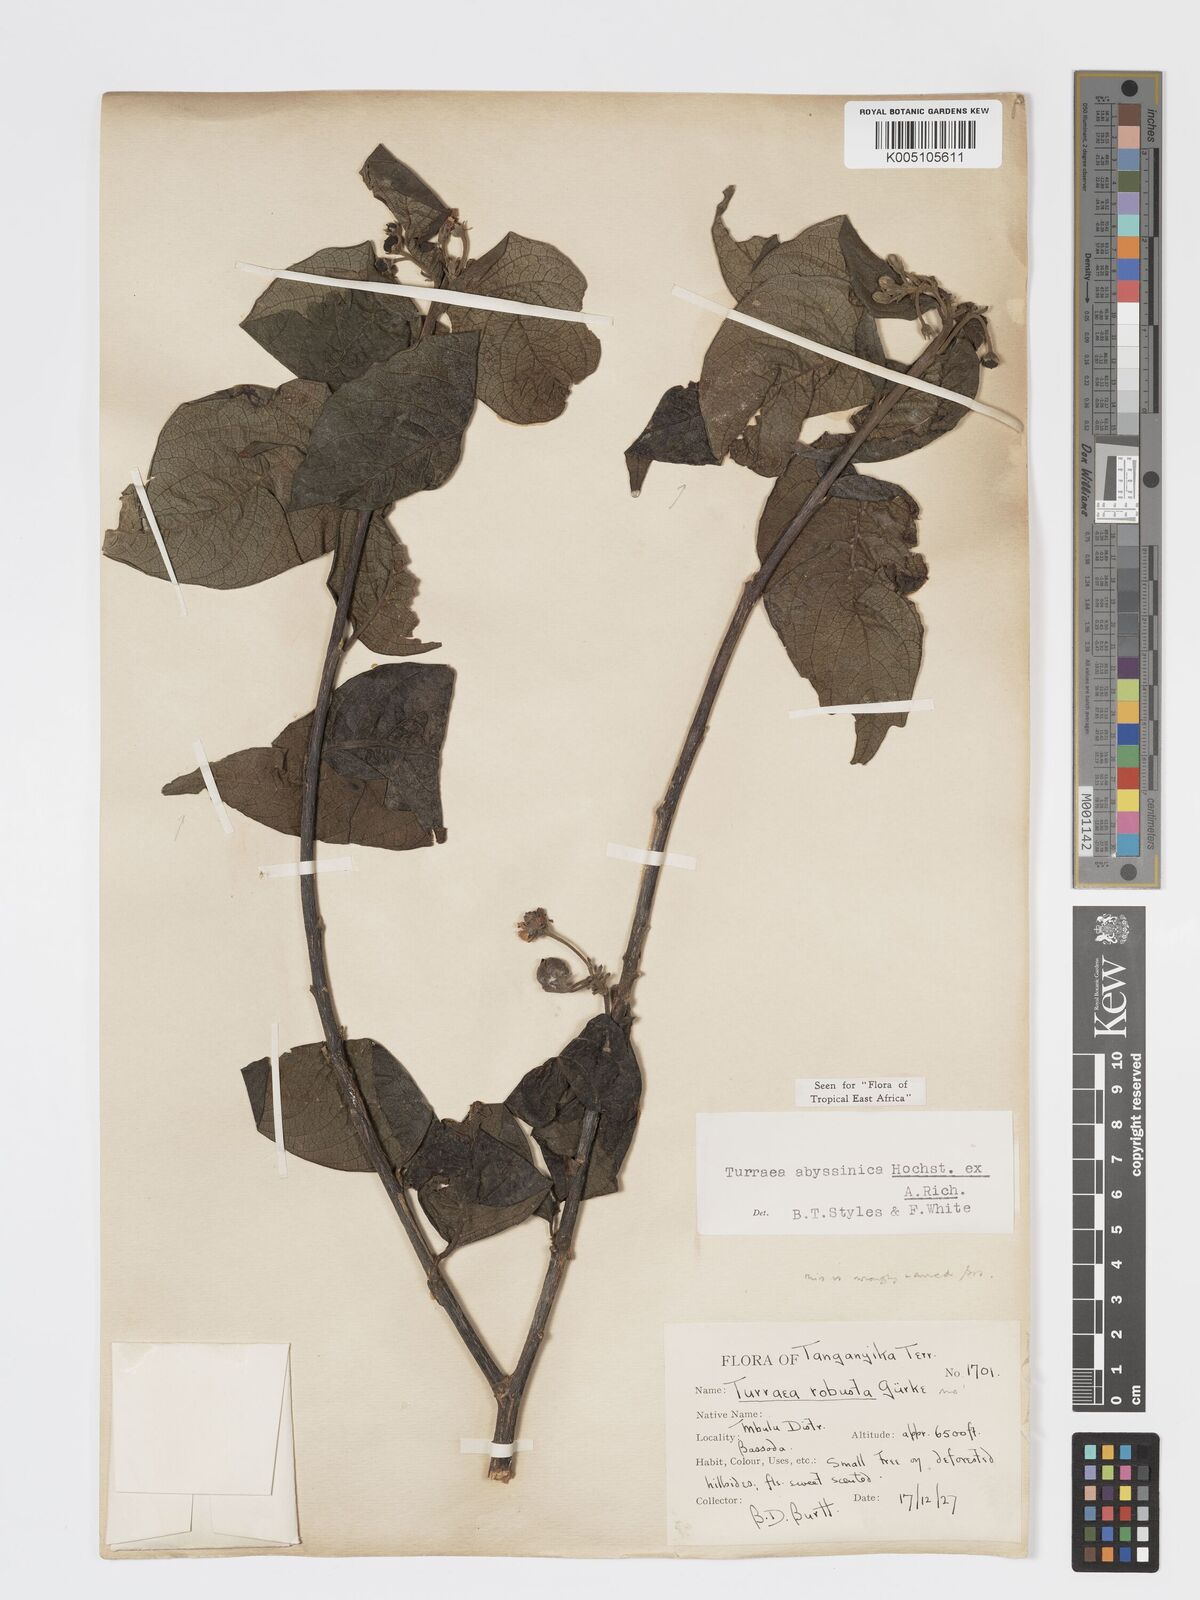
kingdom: Plantae
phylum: Tracheophyta
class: Magnoliopsida
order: Sapindales
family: Meliaceae
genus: Turraea
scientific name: Turraea abyssinica
